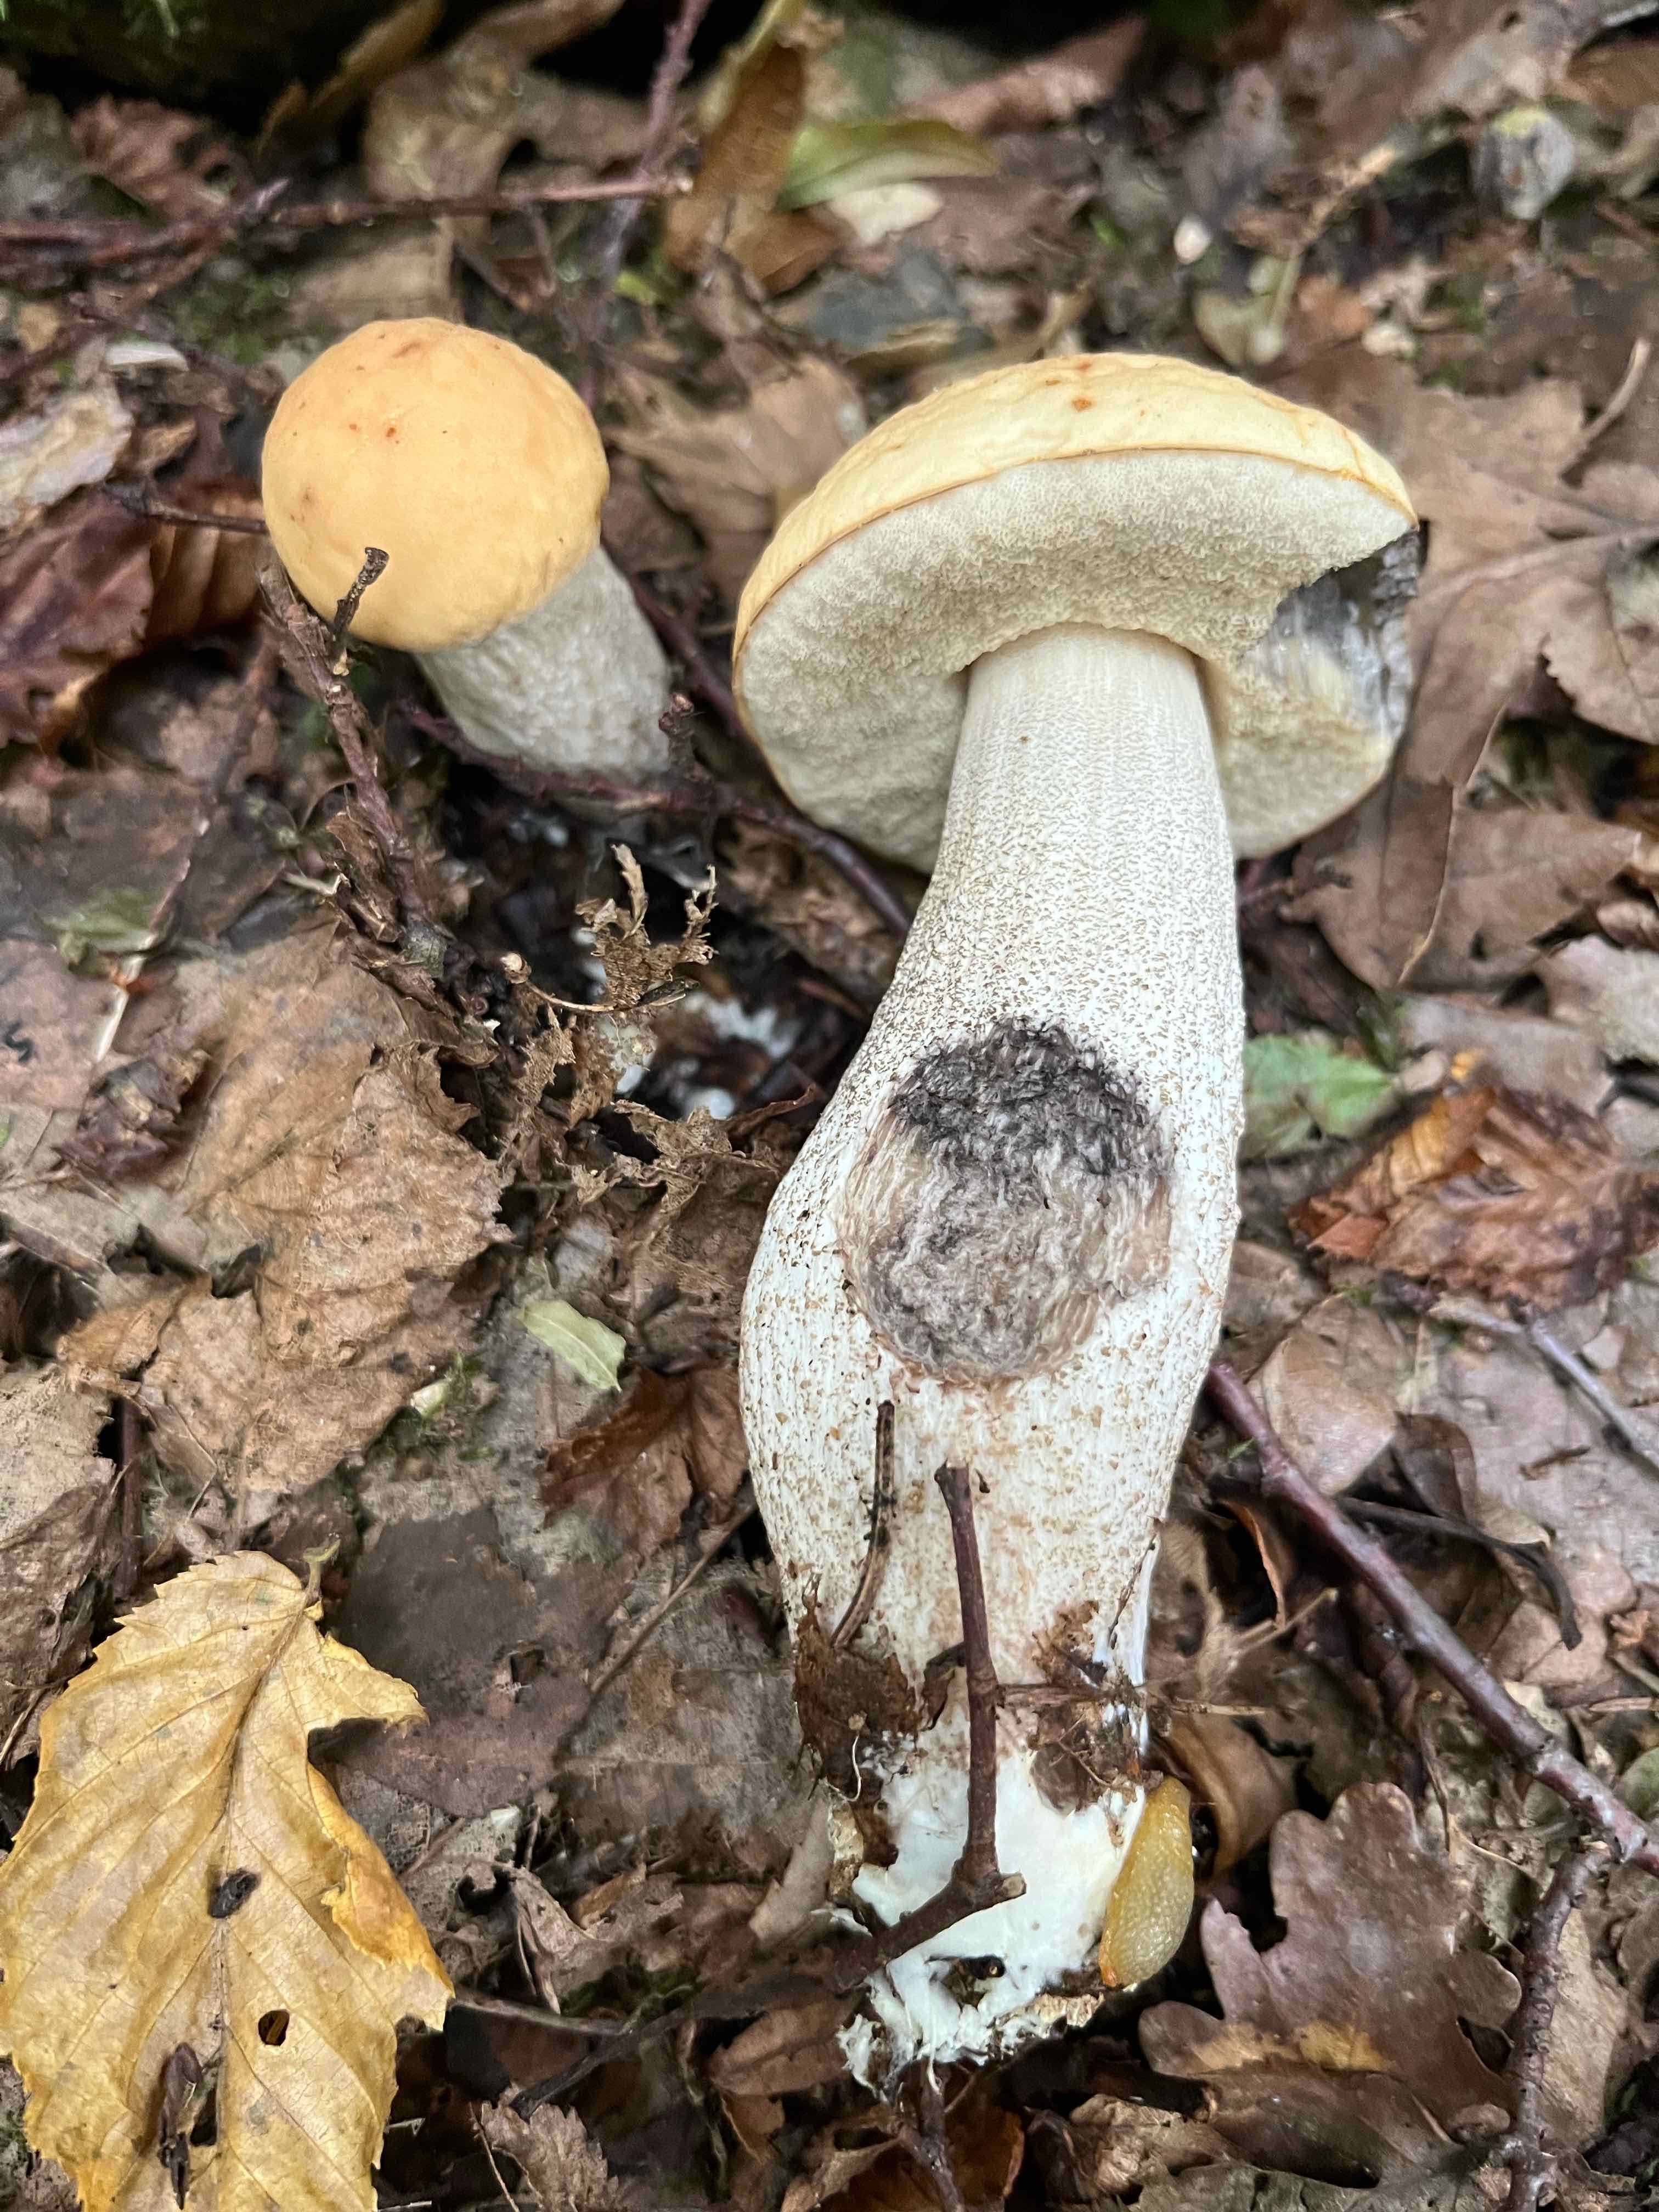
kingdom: Fungi
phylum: Basidiomycota
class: Agaricomycetes
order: Boletales
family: Boletaceae
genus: Leccinellum
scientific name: Leccinellum crocipodium
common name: gul skælrørhat
